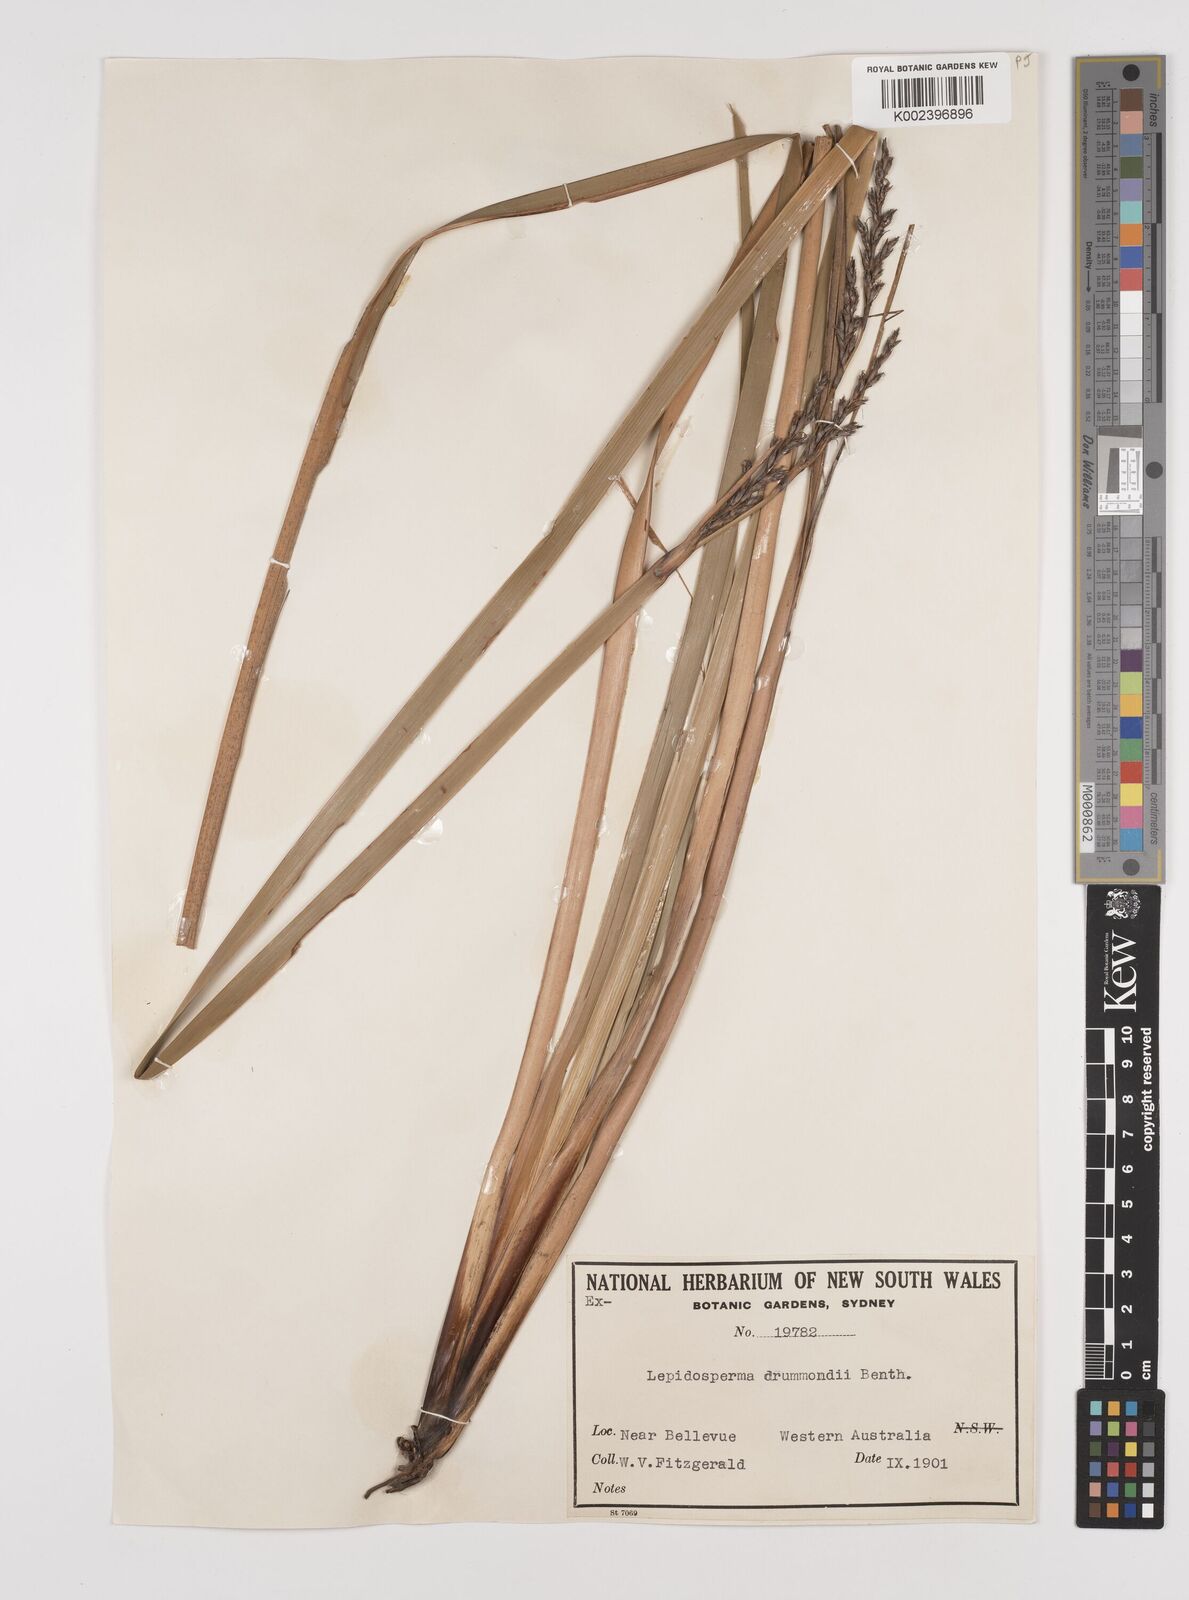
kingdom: Plantae
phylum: Tracheophyta
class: Liliopsida
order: Poales
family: Cyperaceae
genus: Lepidosperma
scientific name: Lepidosperma drummondii
